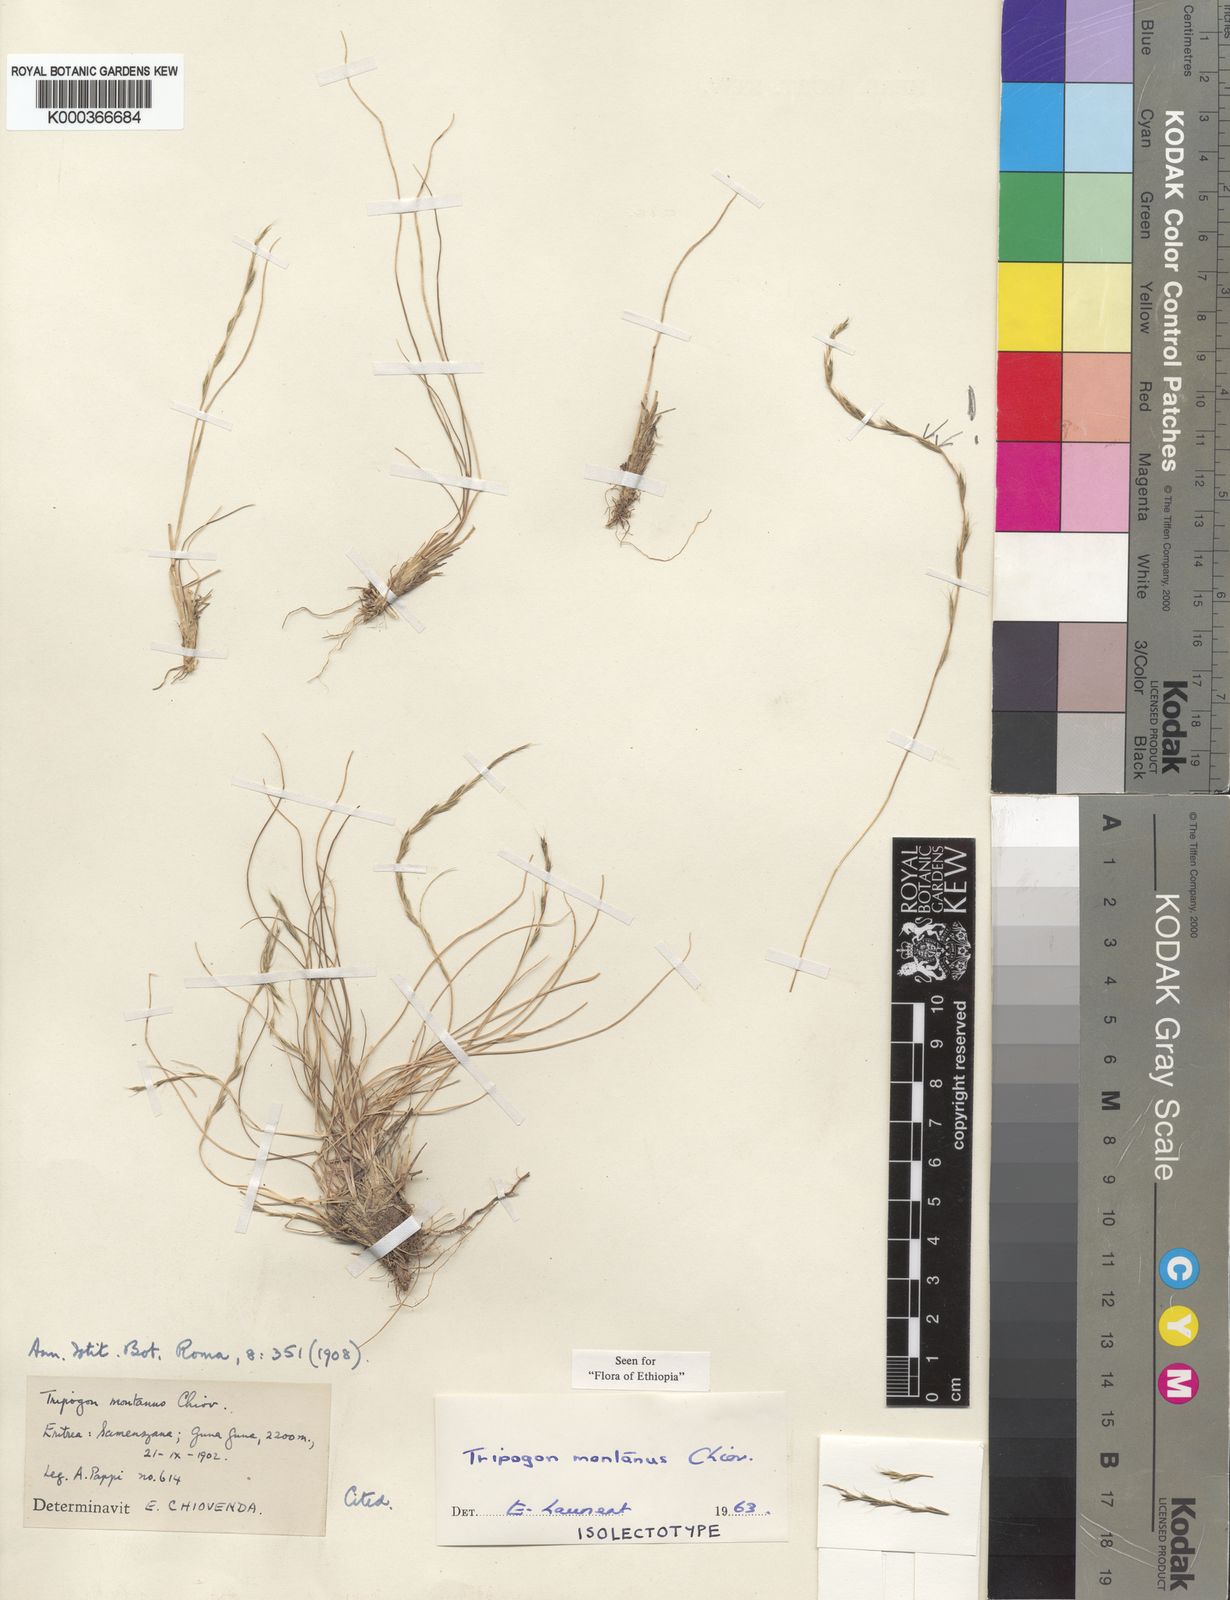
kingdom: Plantae
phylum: Tracheophyta
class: Liliopsida
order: Poales
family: Poaceae
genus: Tripogon
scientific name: Tripogon montanus
